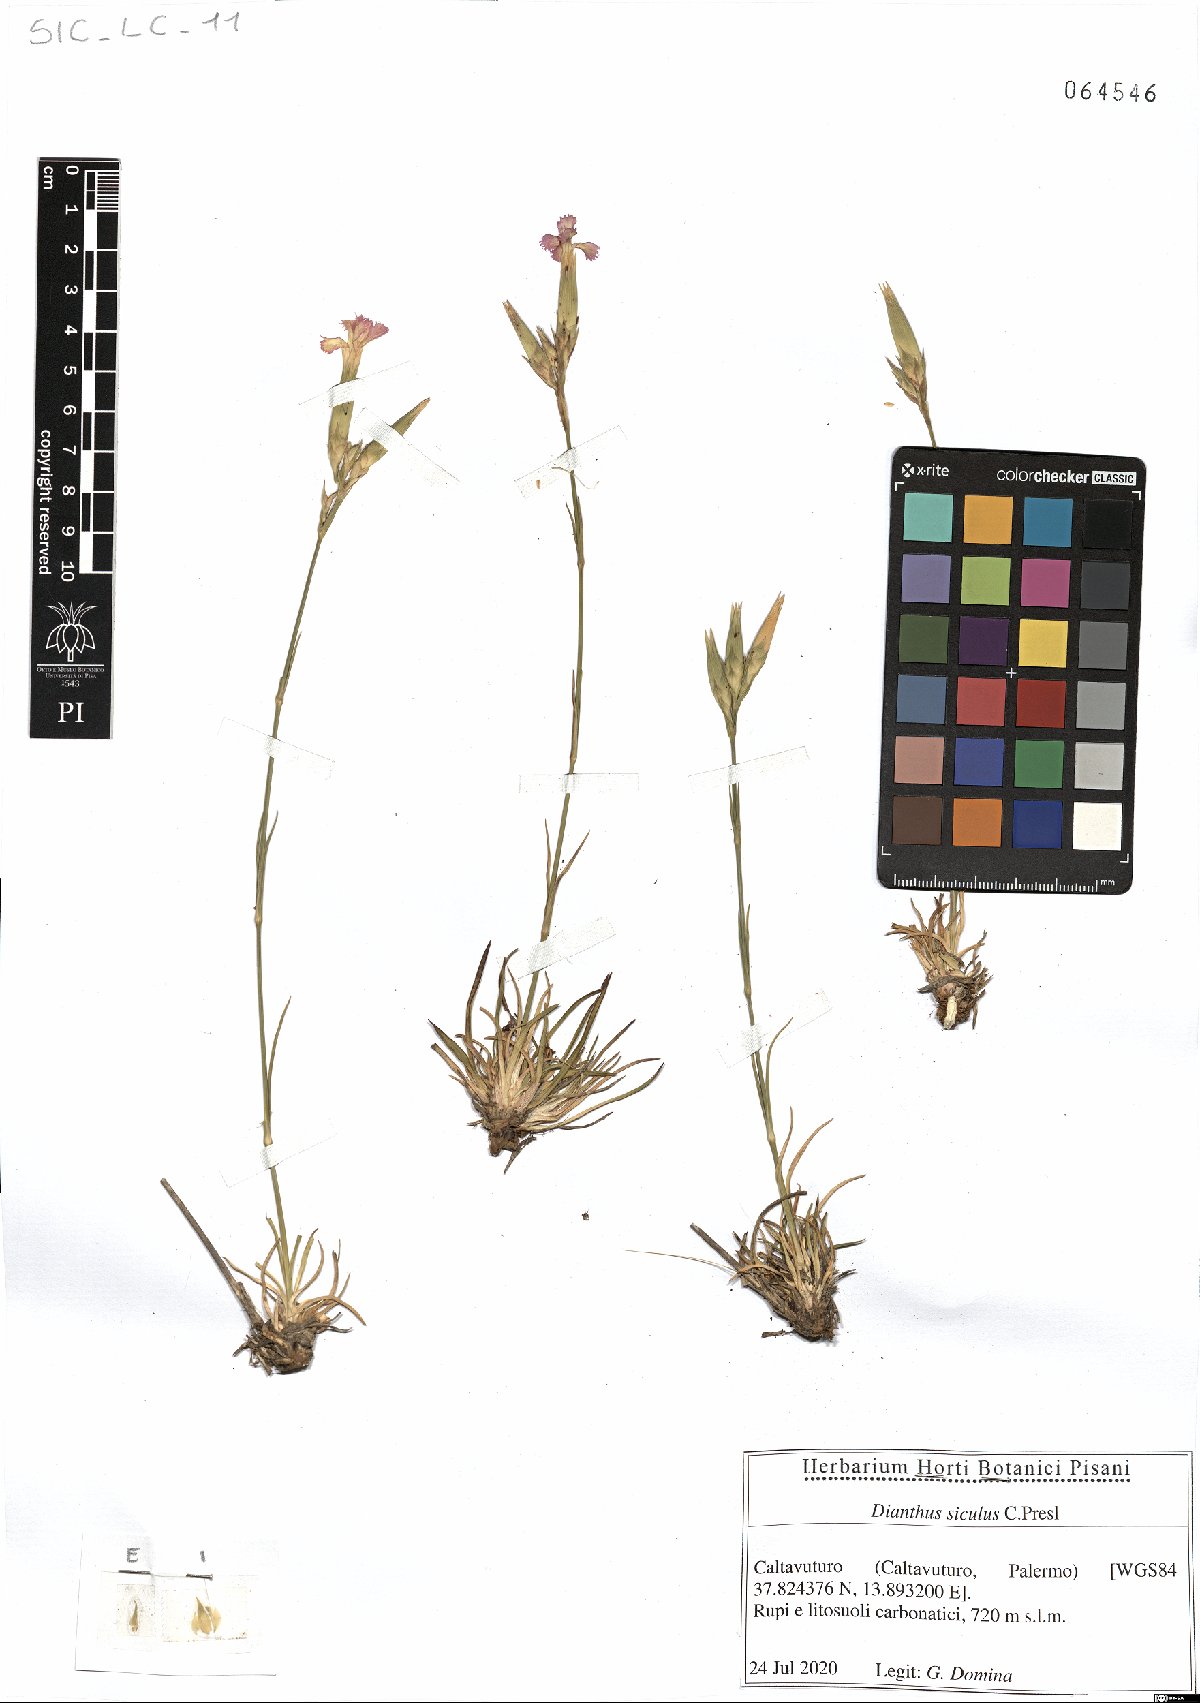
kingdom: Plantae
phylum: Tracheophyta
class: Magnoliopsida
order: Caryophyllales
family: Caryophyllaceae
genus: Dianthus
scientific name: Dianthus siculus
